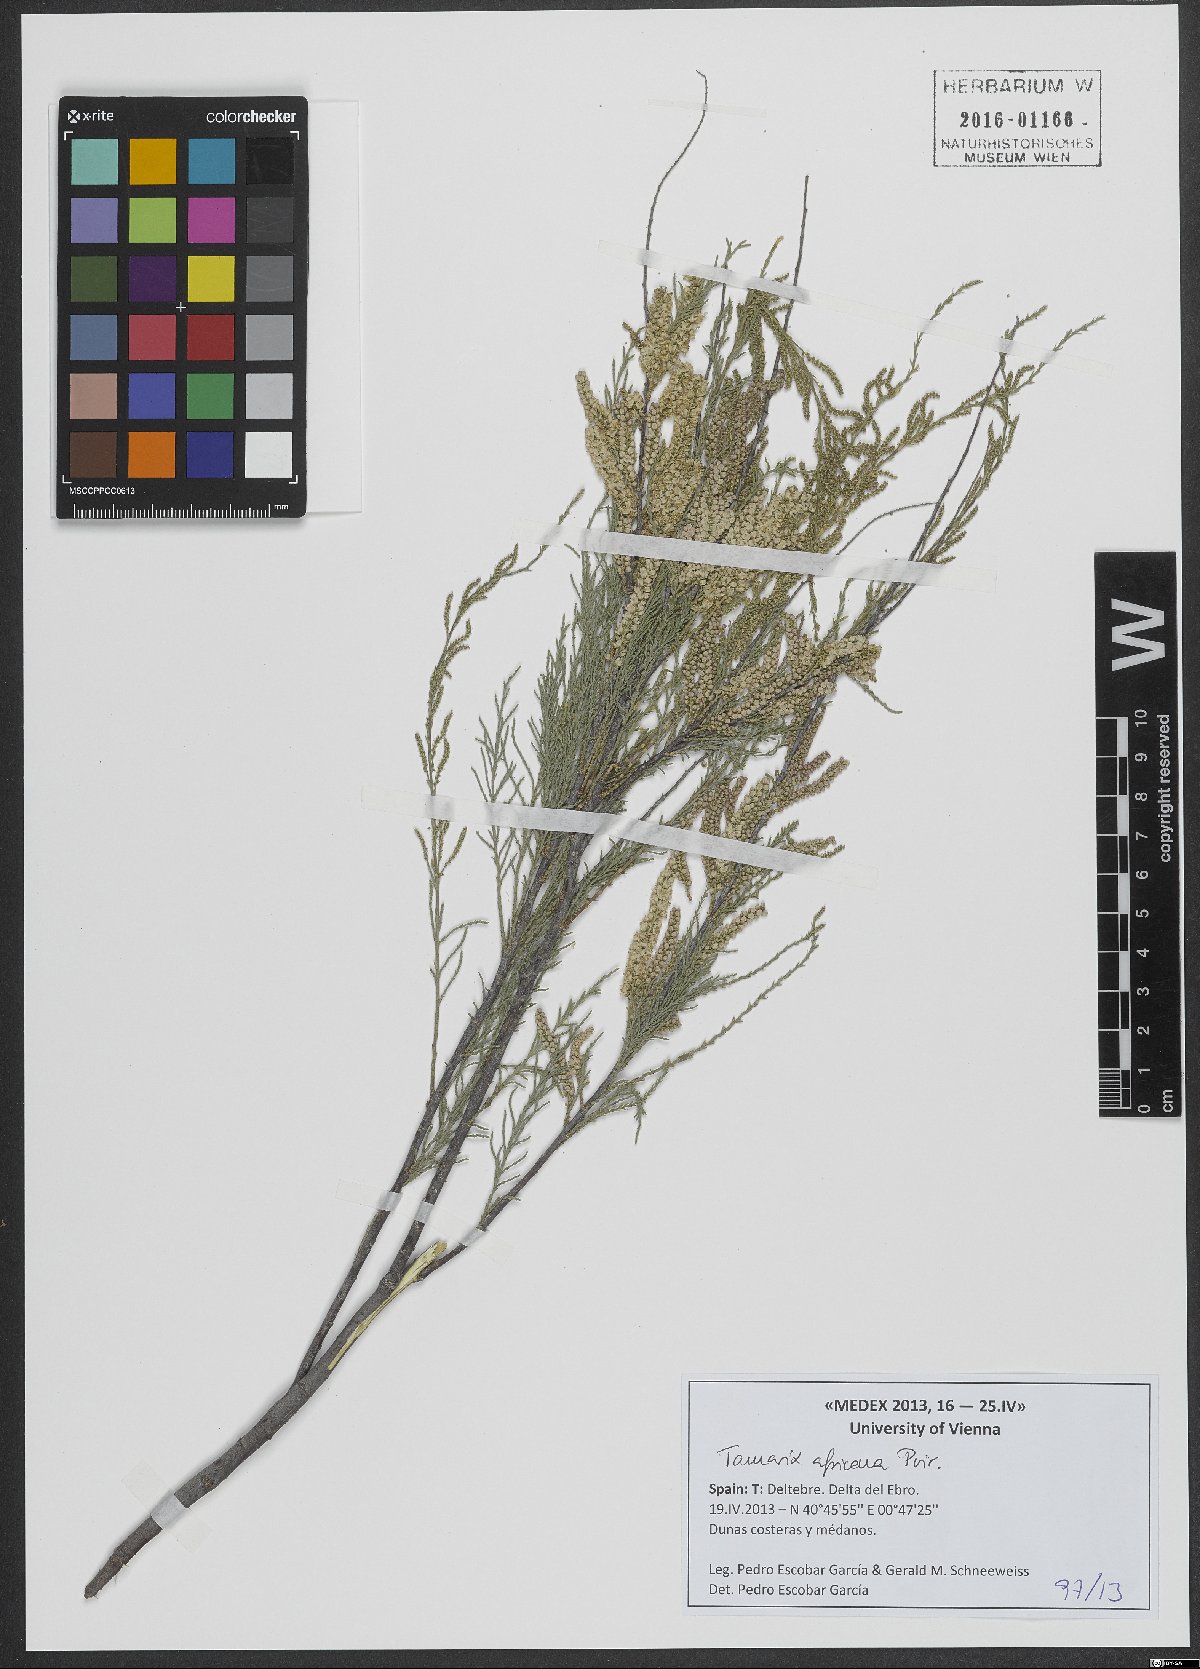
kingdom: Plantae
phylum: Tracheophyta
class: Magnoliopsida
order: Caryophyllales
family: Tamaricaceae
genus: Tamarix
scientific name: Tamarix africana
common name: African tamarisk
